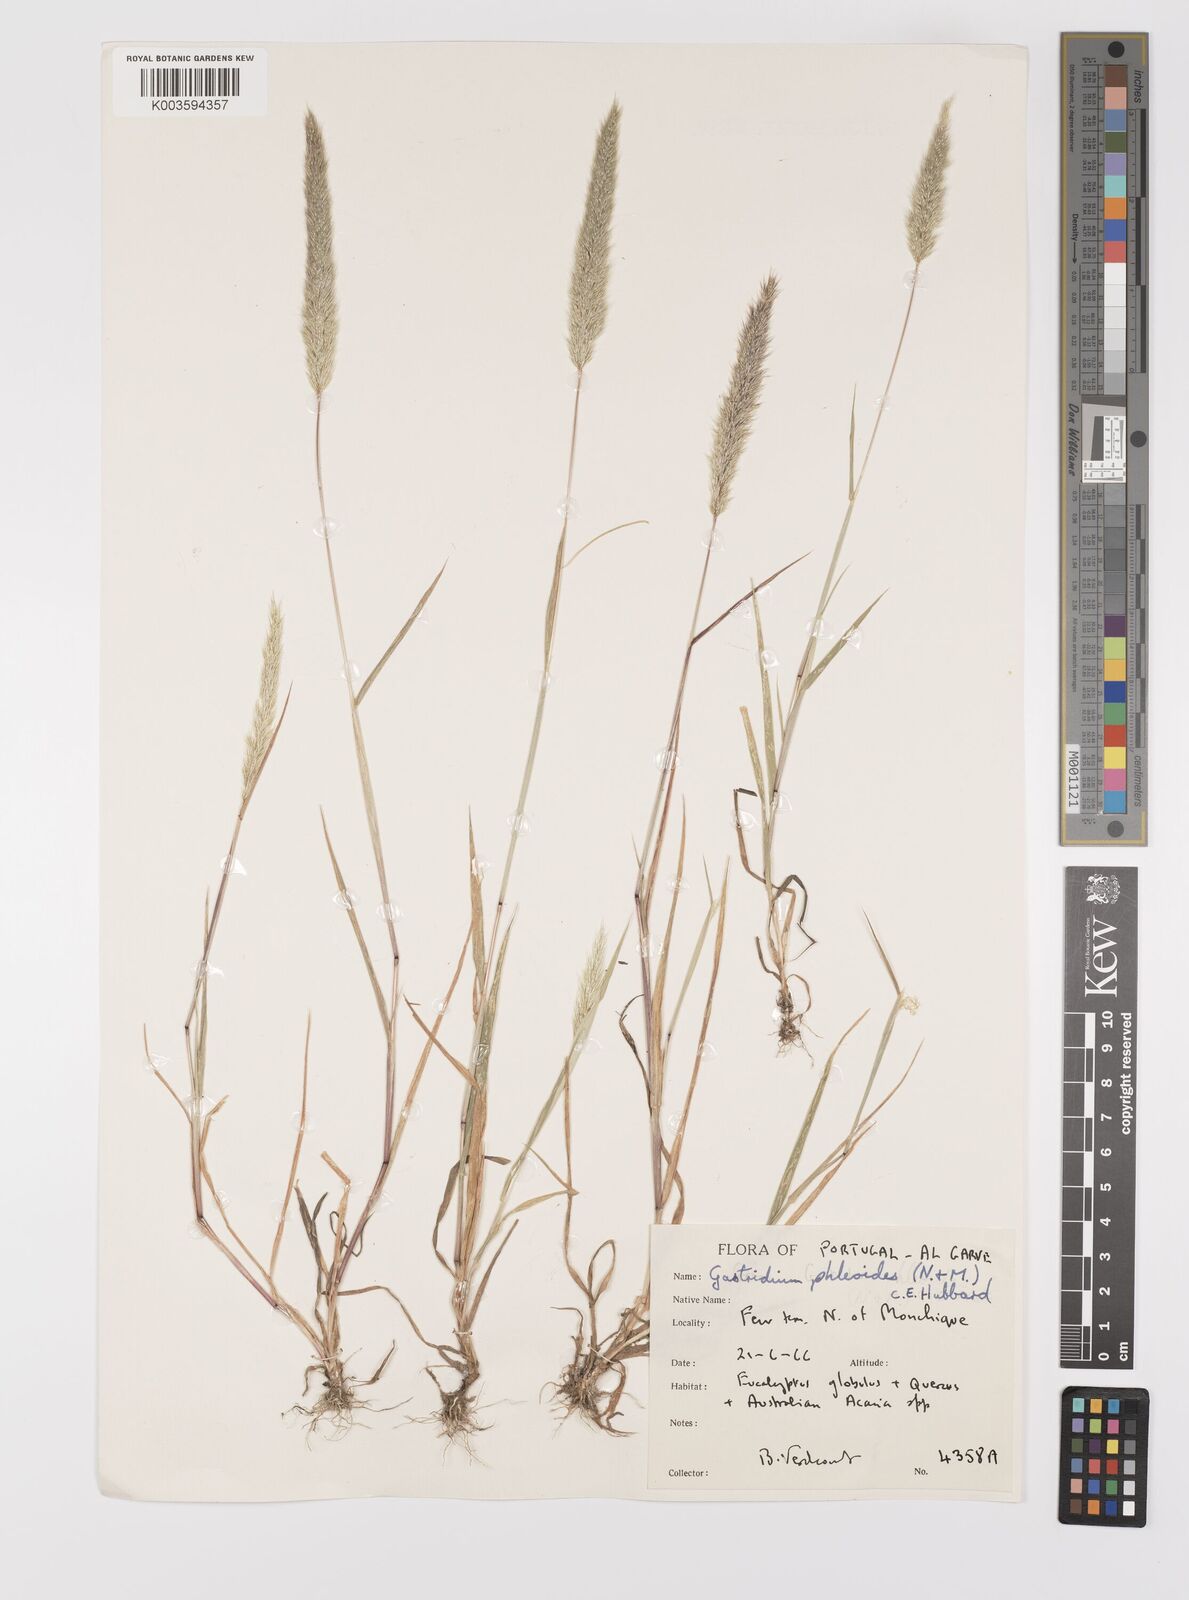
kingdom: Plantae
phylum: Tracheophyta
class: Liliopsida
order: Poales
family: Poaceae
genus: Gastridium
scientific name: Gastridium phleoides
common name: Nit grass
